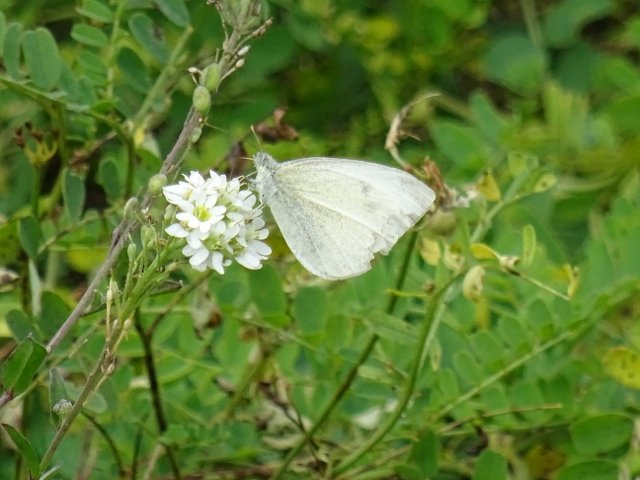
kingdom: Animalia
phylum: Arthropoda
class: Insecta
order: Lepidoptera
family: Pieridae
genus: Pieris
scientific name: Pieris rapae
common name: Cabbage White
